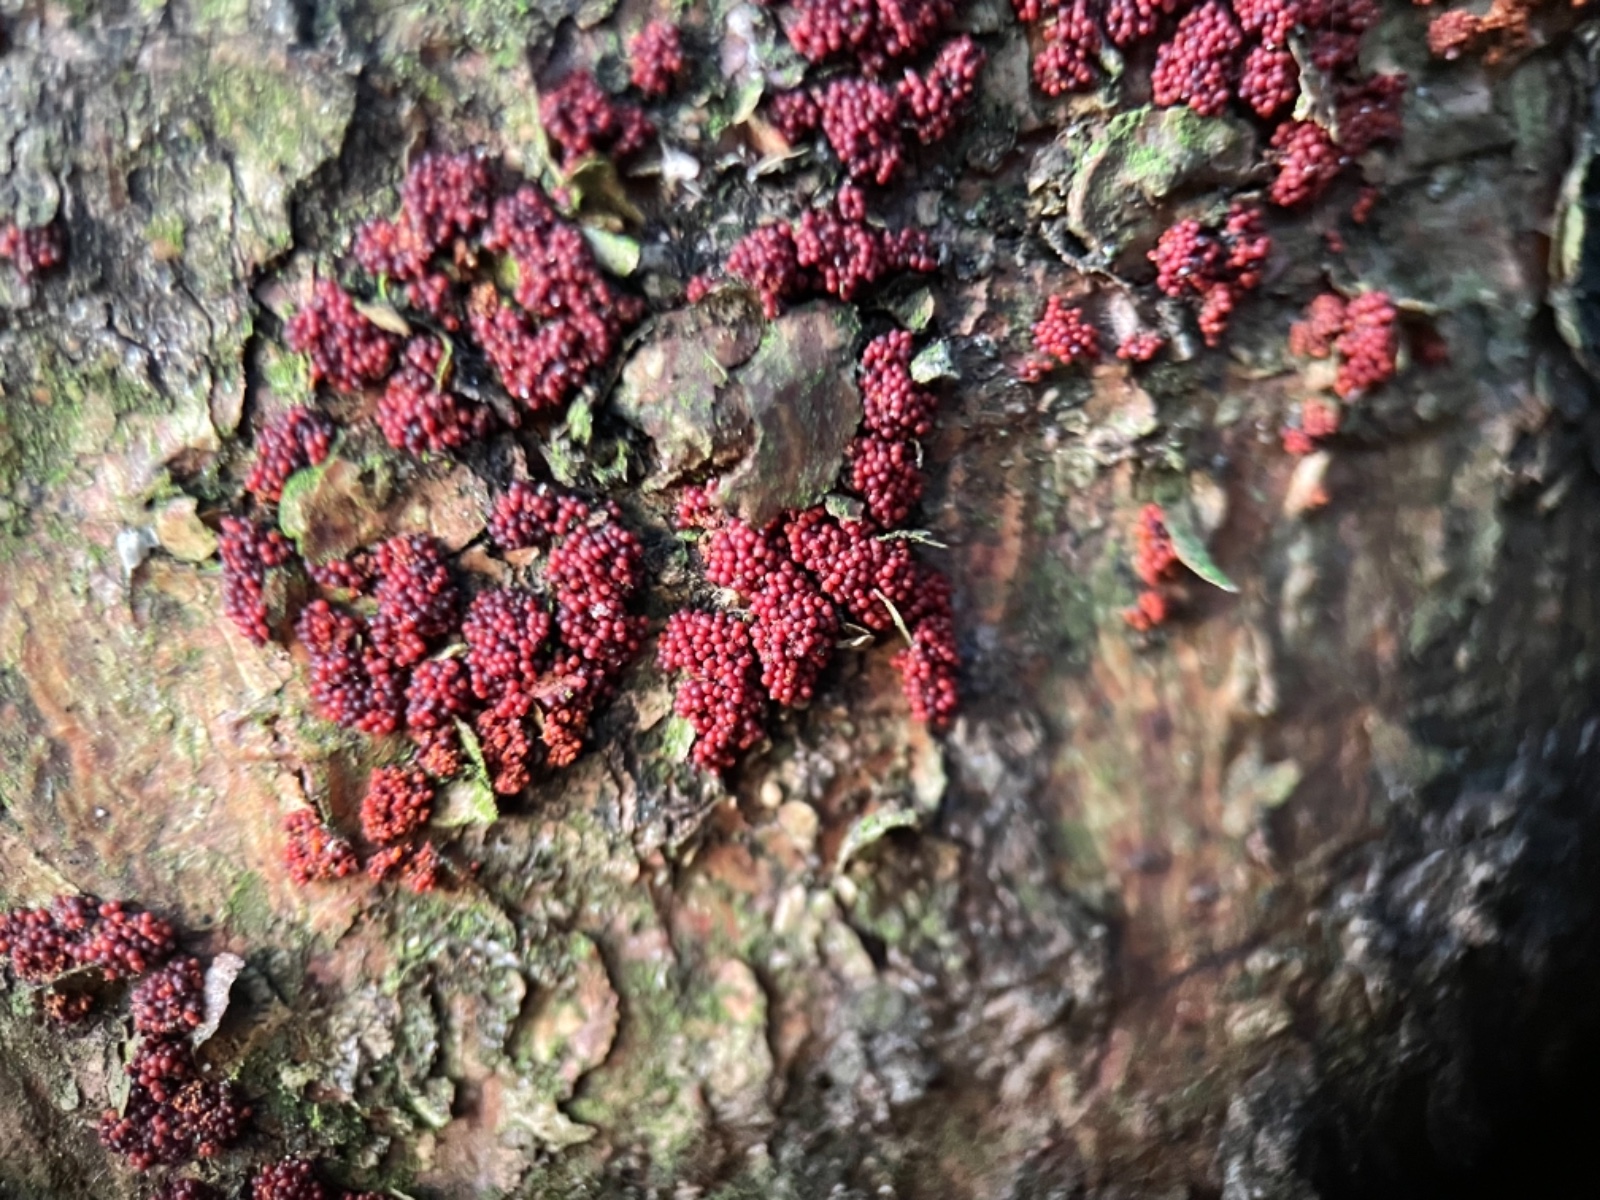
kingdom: Fungi
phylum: Ascomycota
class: Sordariomycetes
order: Hypocreales
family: Nectriaceae
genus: Corinectria
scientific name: Corinectria fuckeliana
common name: grankræft-cinnobersvamp
